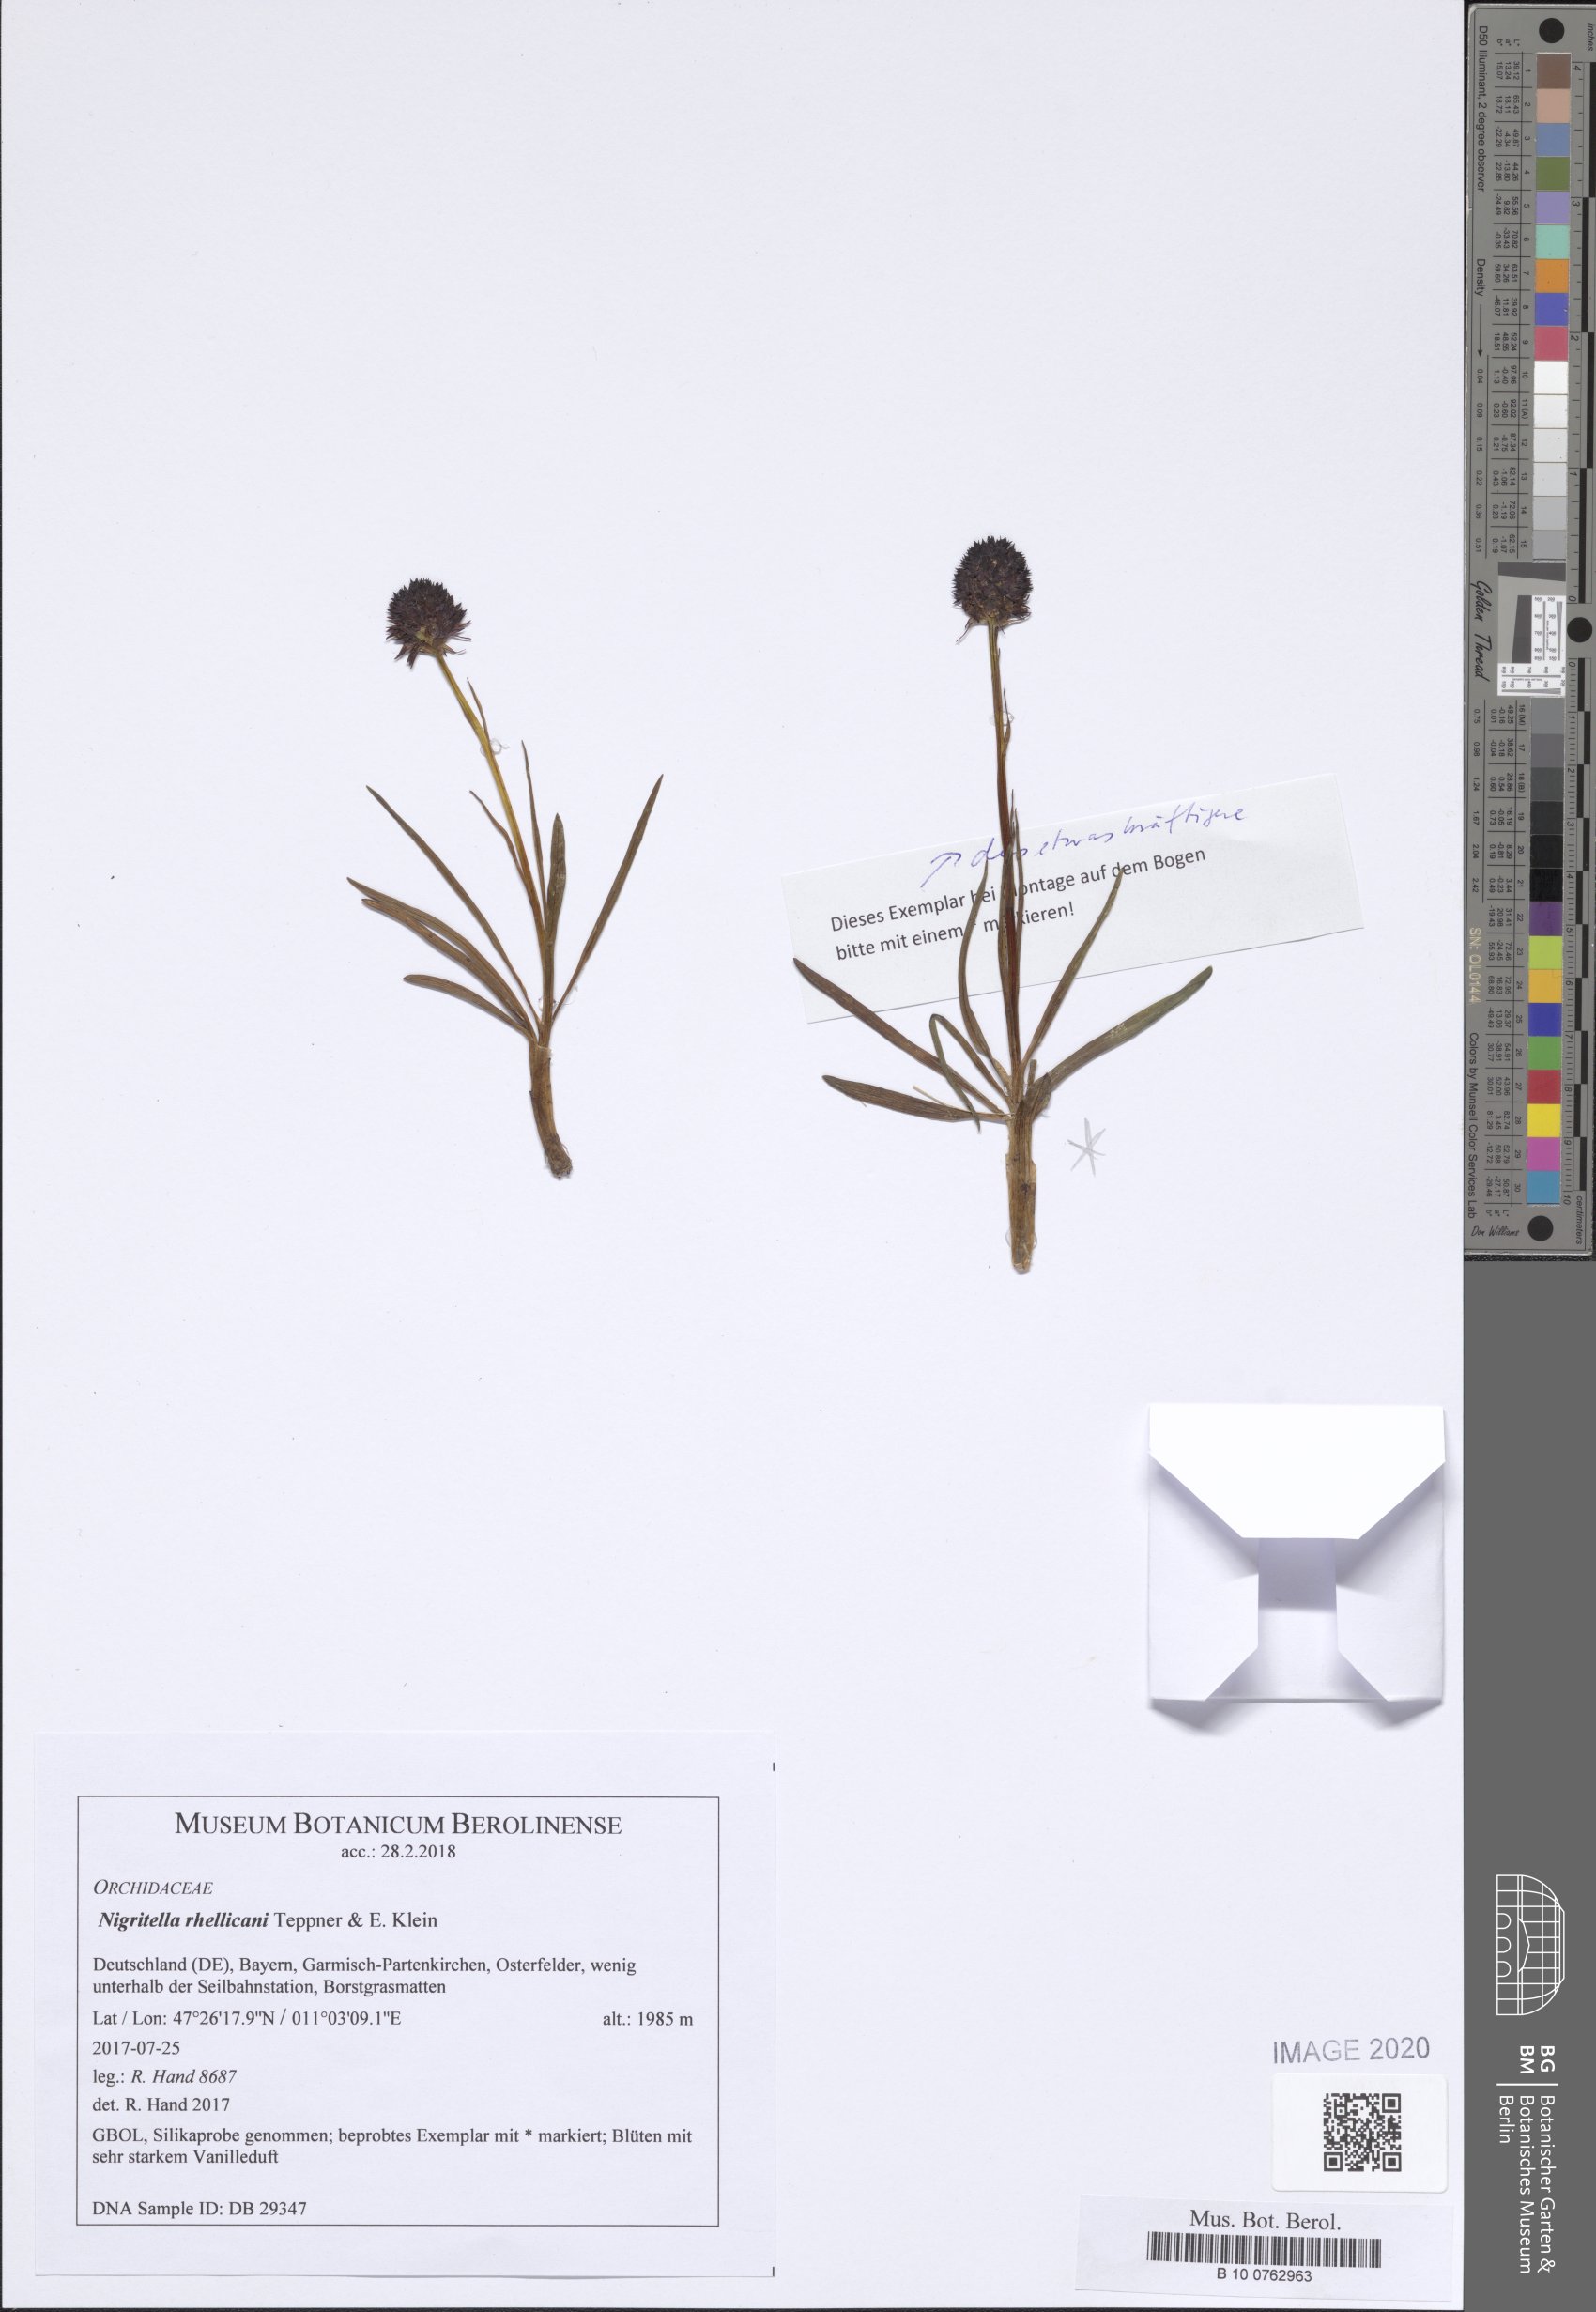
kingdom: Plantae
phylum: Tracheophyta
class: Liliopsida
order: Asparagales
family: Orchidaceae
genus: Gymnadenia
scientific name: Gymnadenia rhellicani
